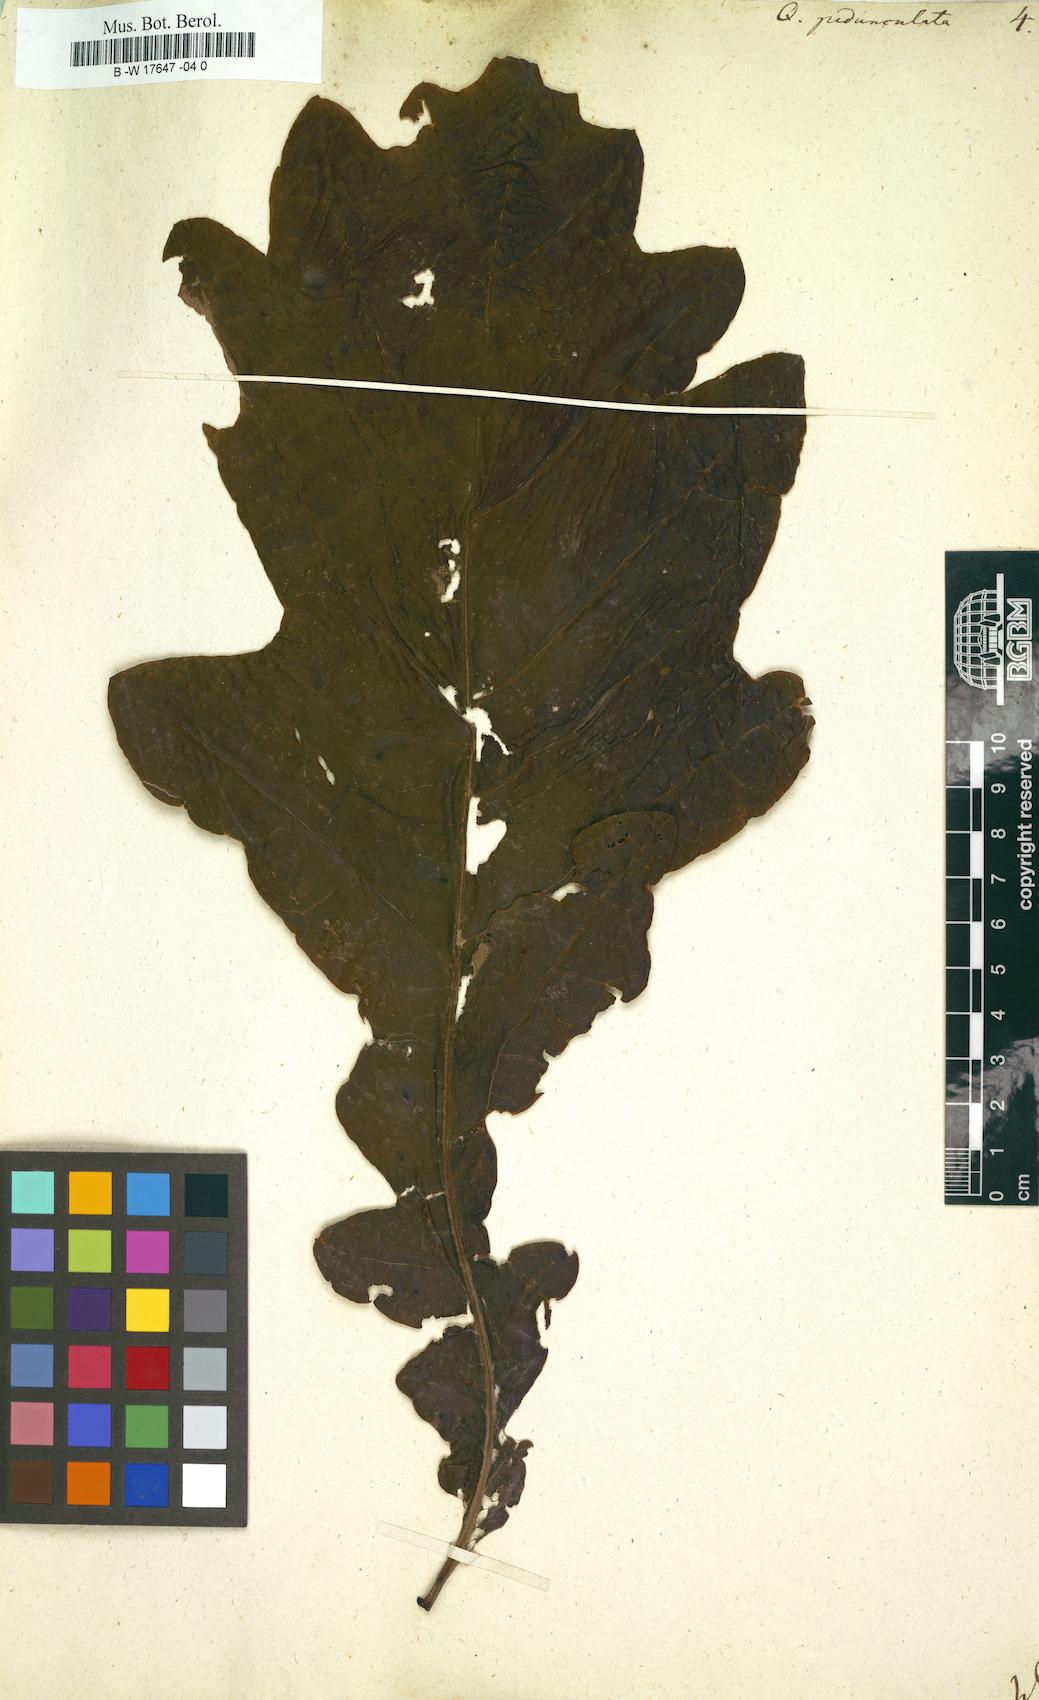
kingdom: Plantae
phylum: Tracheophyta
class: Magnoliopsida
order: Fagales
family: Fagaceae
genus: Quercus
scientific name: Quercus pedunculata
